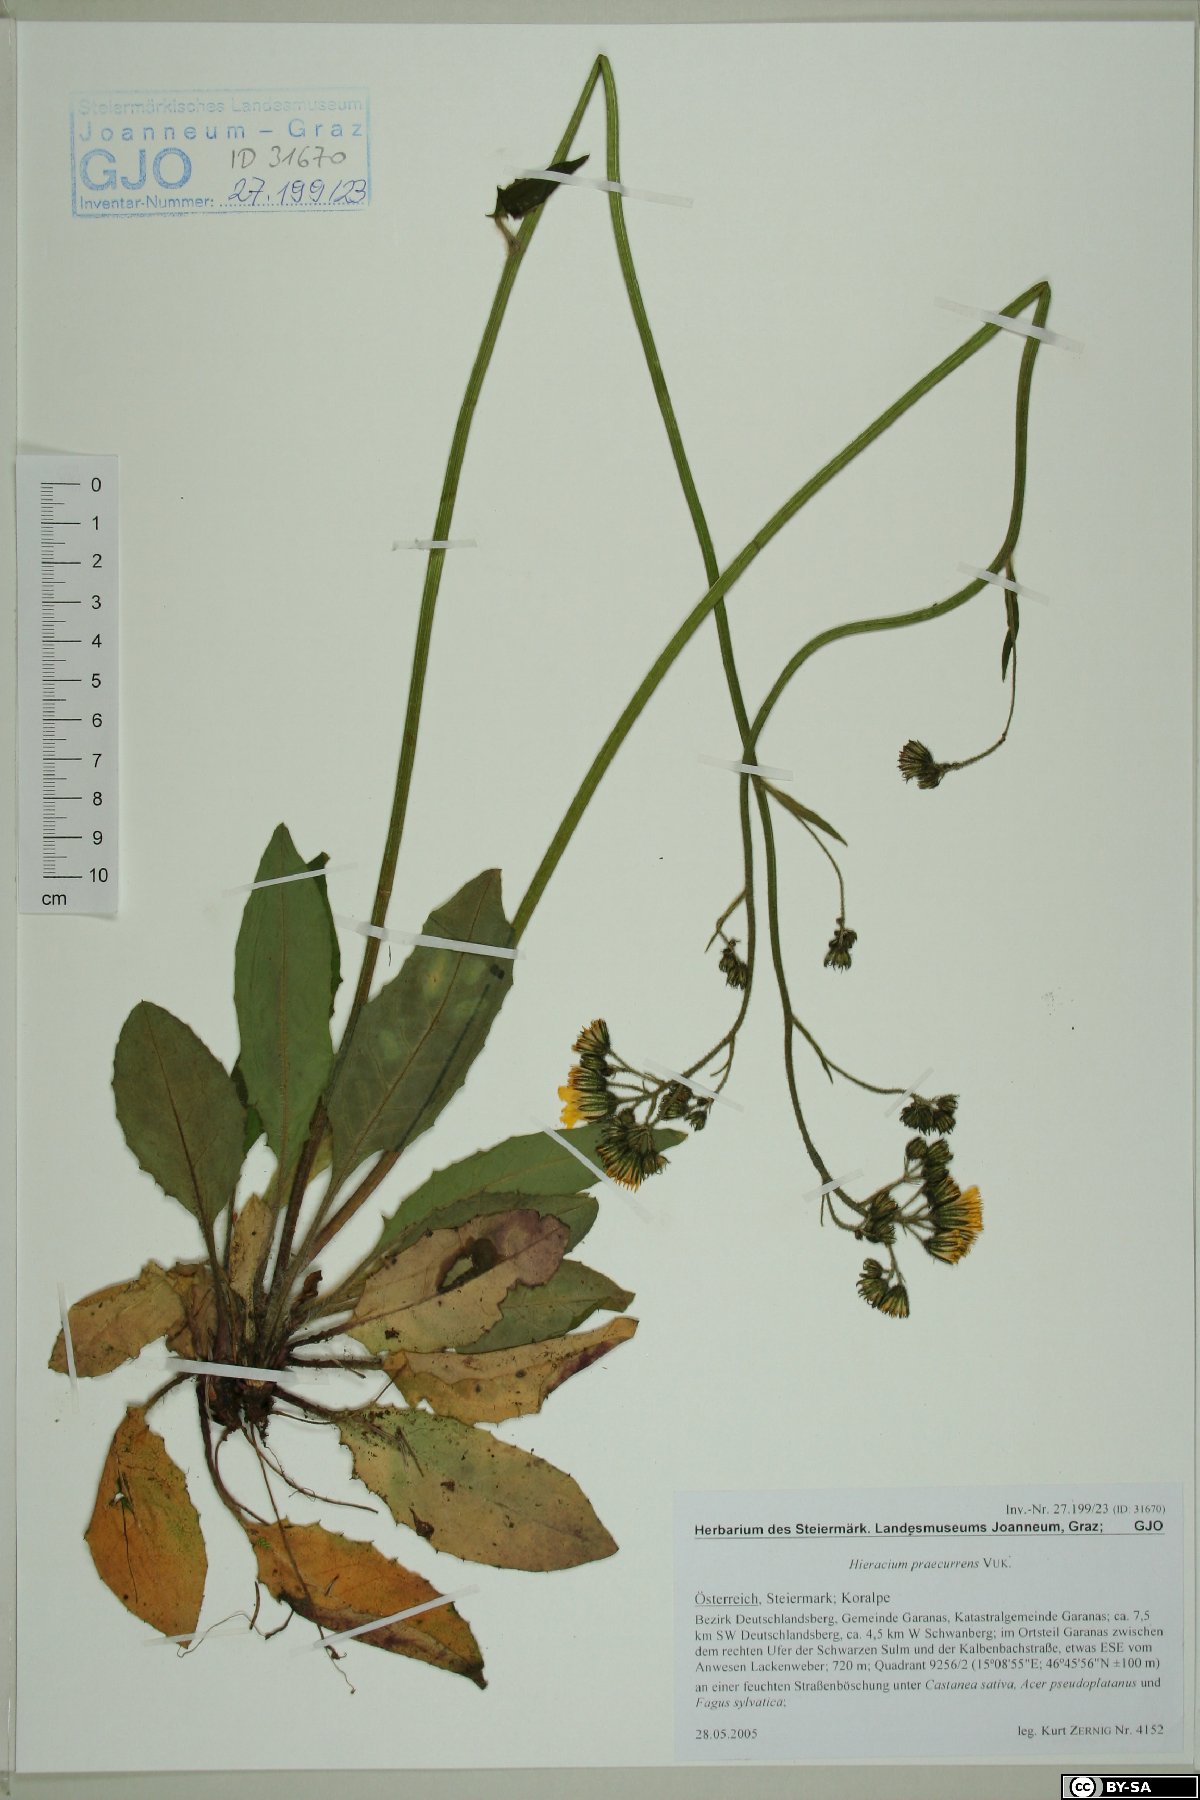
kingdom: Plantae
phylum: Tracheophyta
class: Magnoliopsida
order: Asterales
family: Asteraceae
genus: Hieracium
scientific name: Hieracium rotundatum
